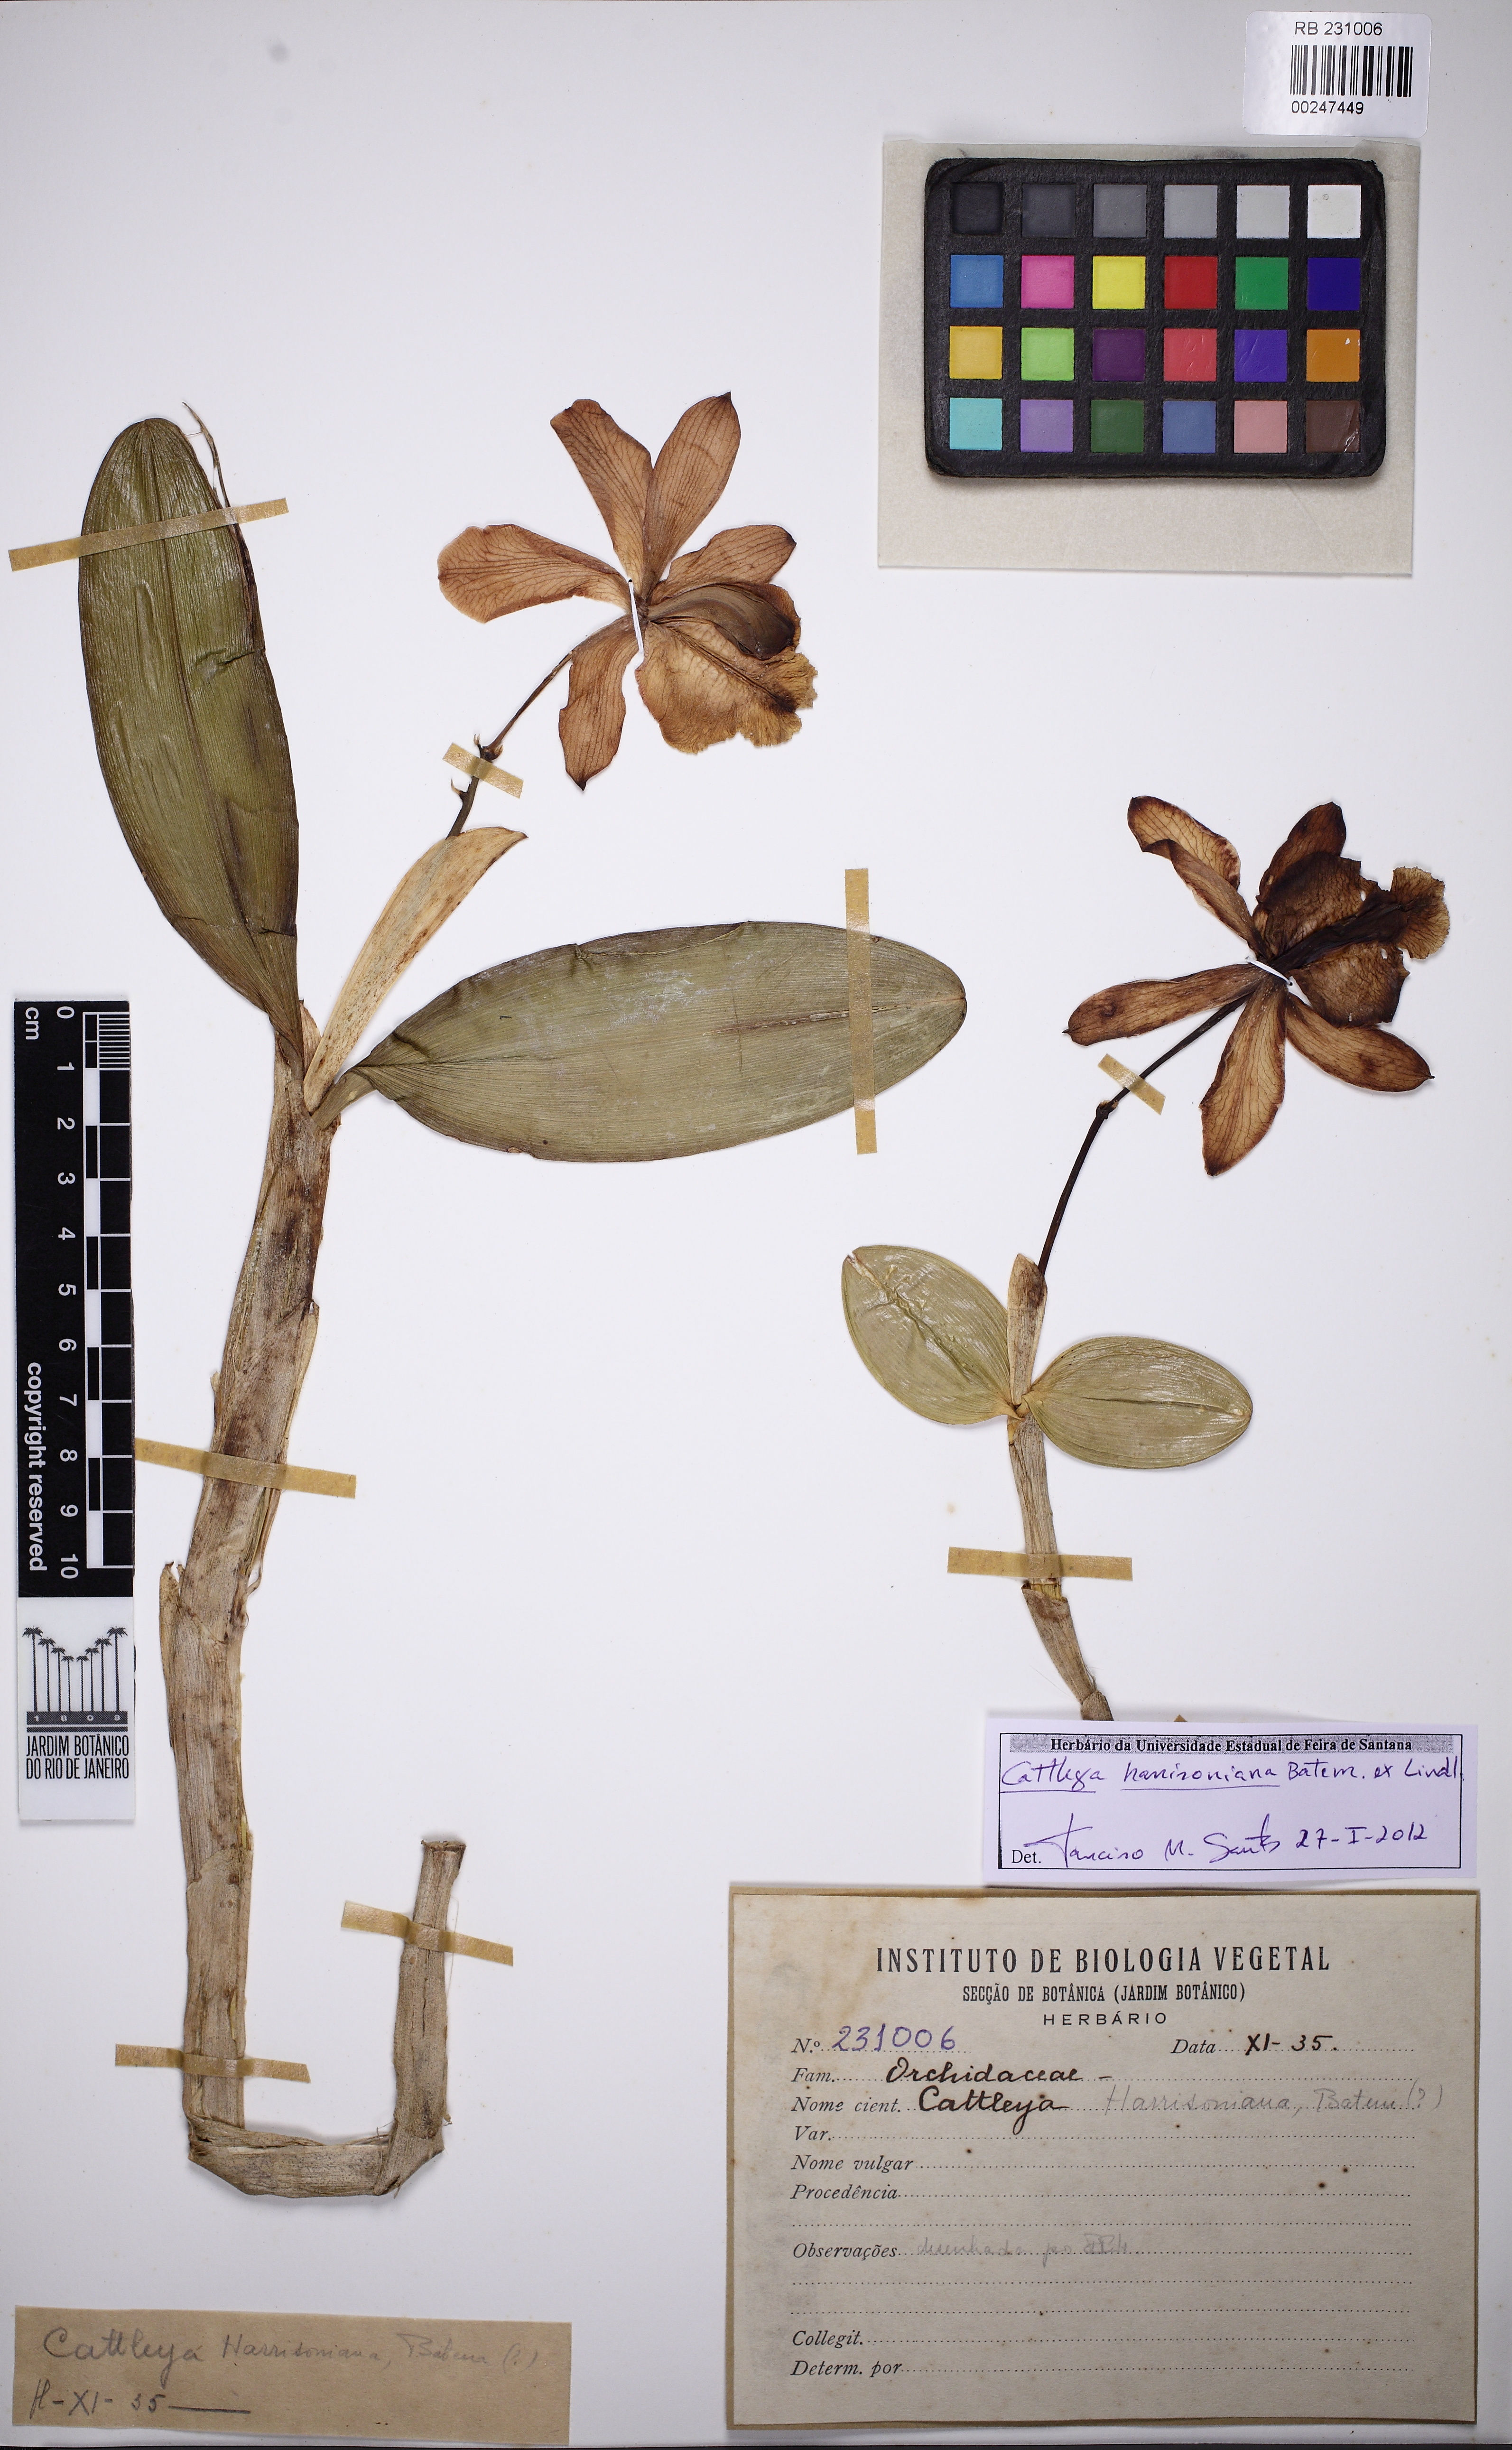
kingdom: Plantae
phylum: Tracheophyta
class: Liliopsida
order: Asparagales
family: Orchidaceae
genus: Cattleya
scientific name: Cattleya harrisoniana
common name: Harrison's cattleya
